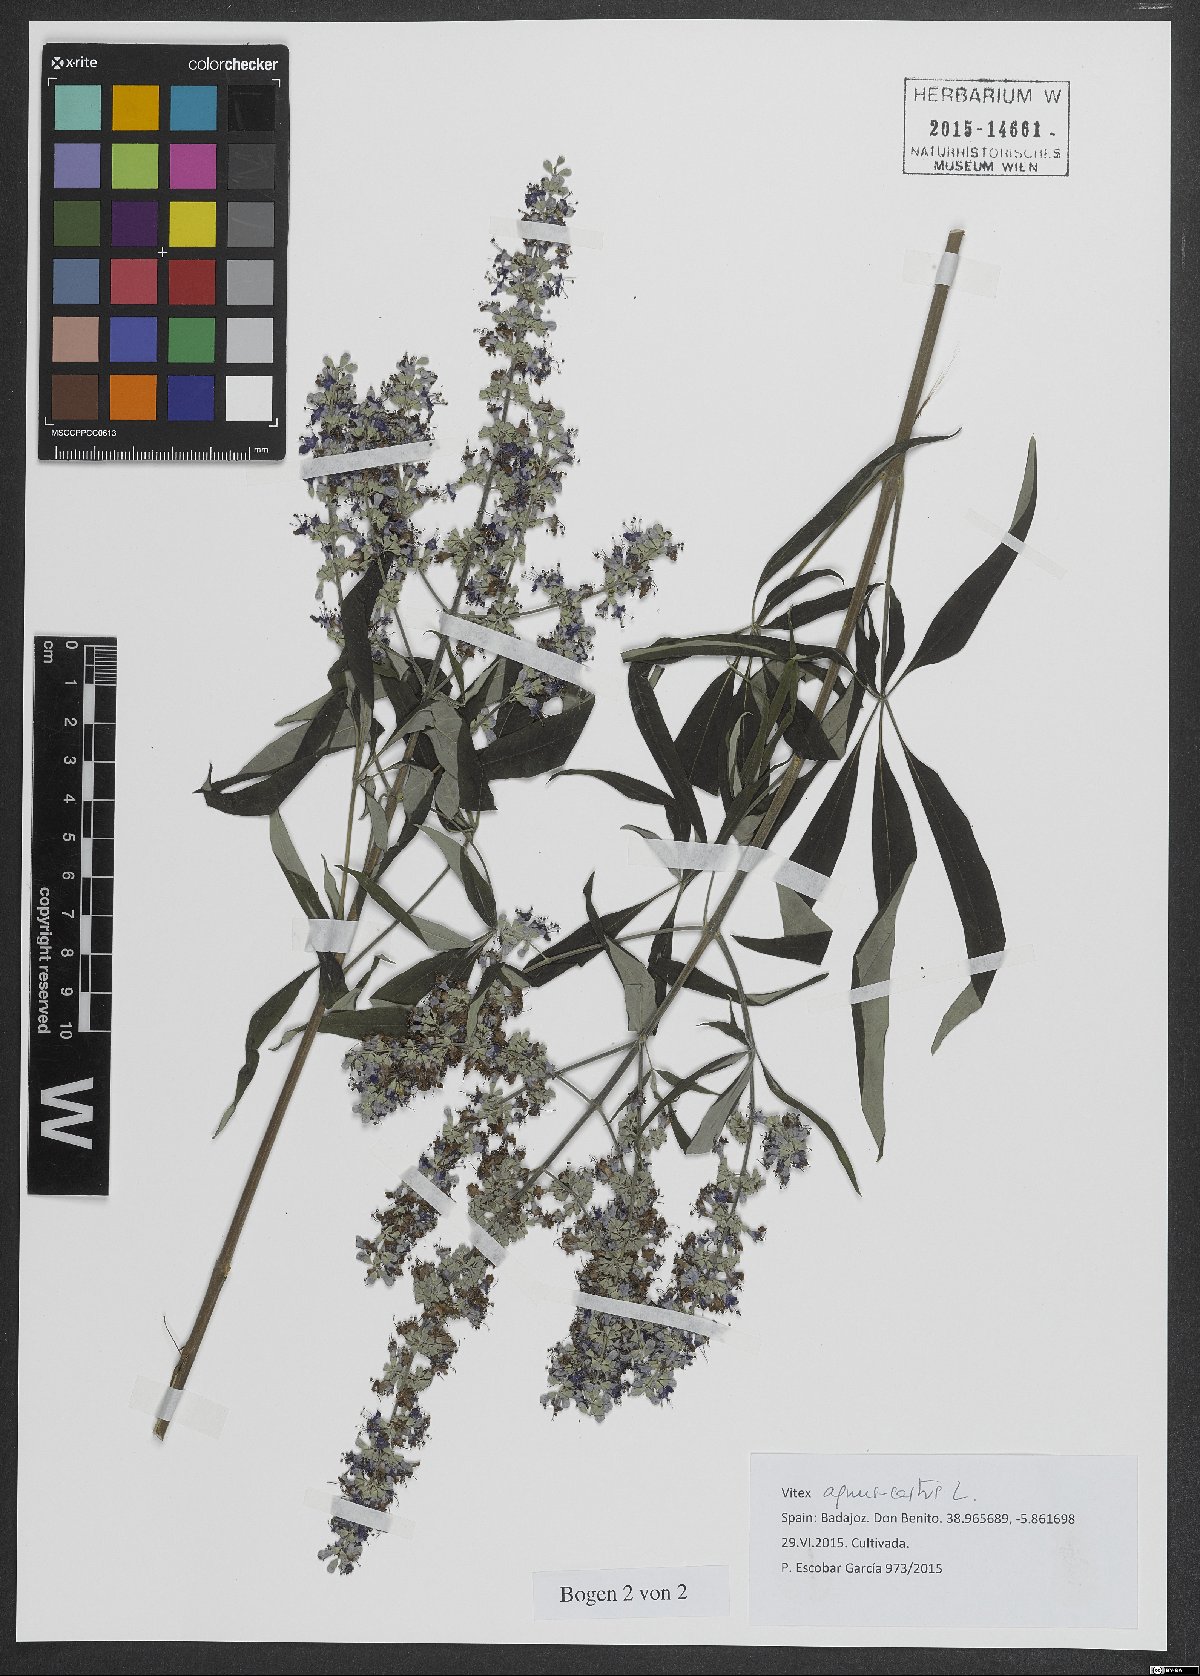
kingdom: Plantae
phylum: Tracheophyta
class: Magnoliopsida
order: Lamiales
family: Lamiaceae
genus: Vitex
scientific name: Vitex agnus-castus
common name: Chasteberry
